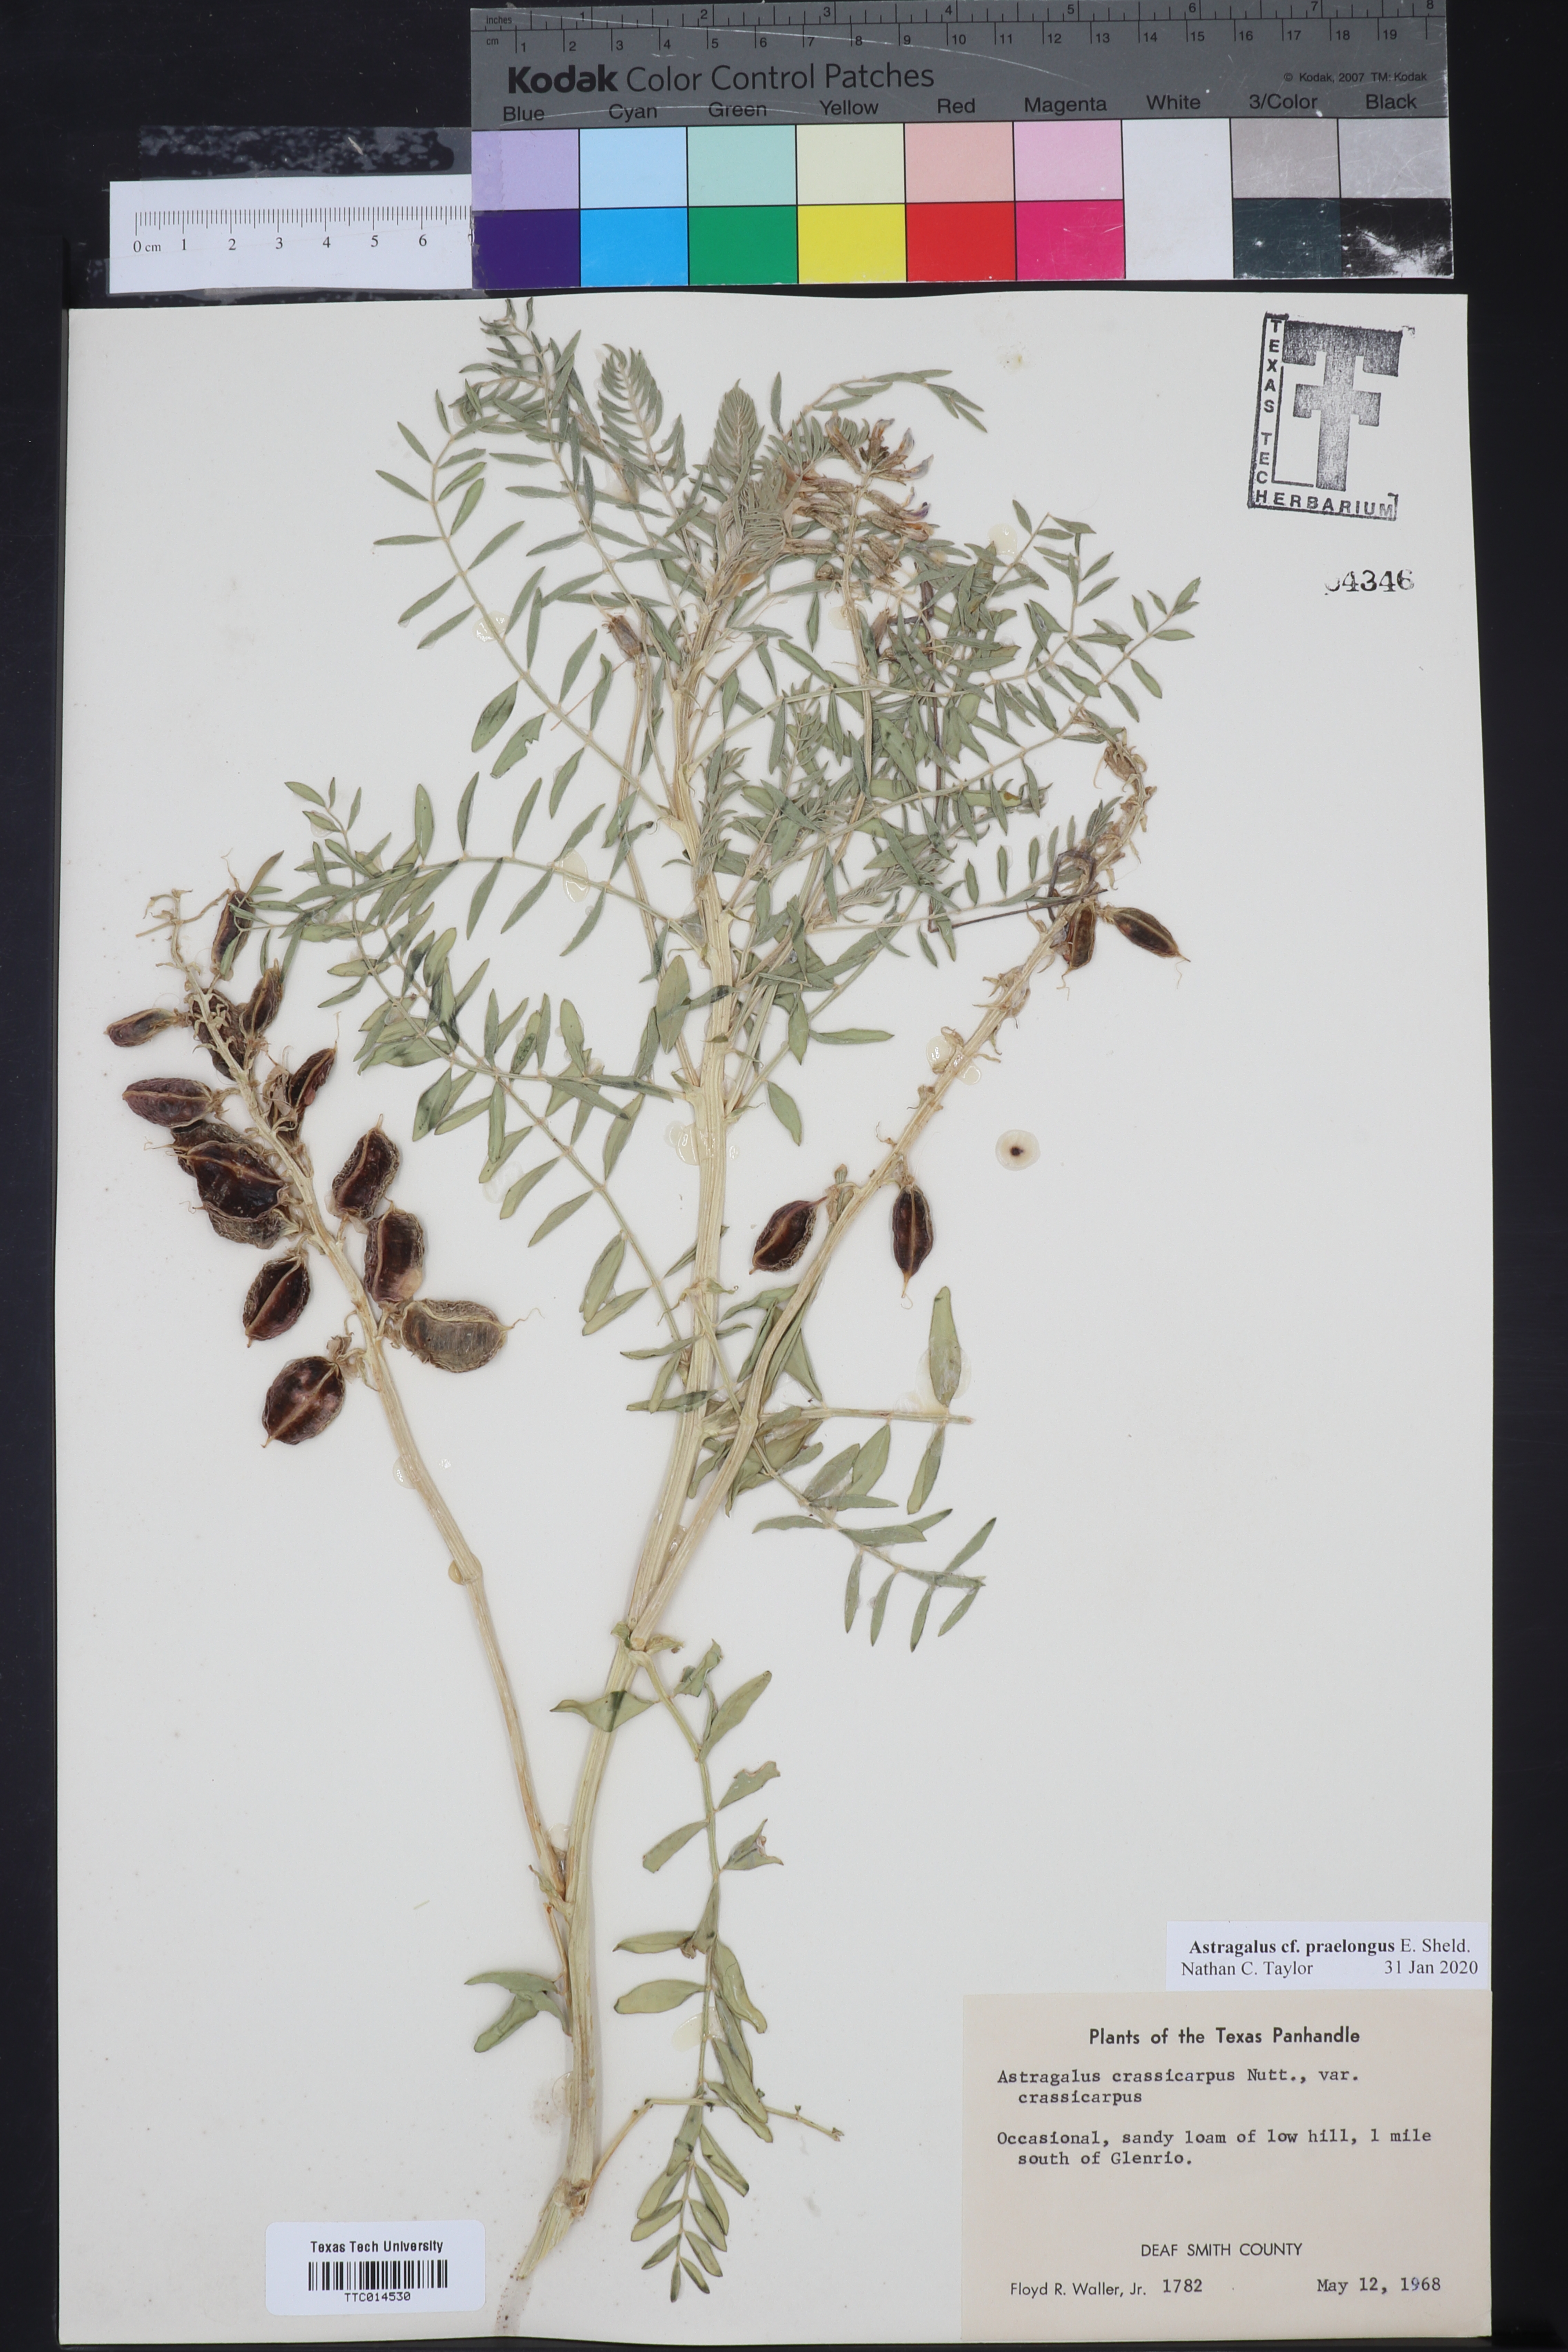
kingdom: Plantae
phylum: Tracheophyta
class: Magnoliopsida
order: Fabales
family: Fabaceae
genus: Astragalus
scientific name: Astragalus praelongus
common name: Stinking milk-vetch
